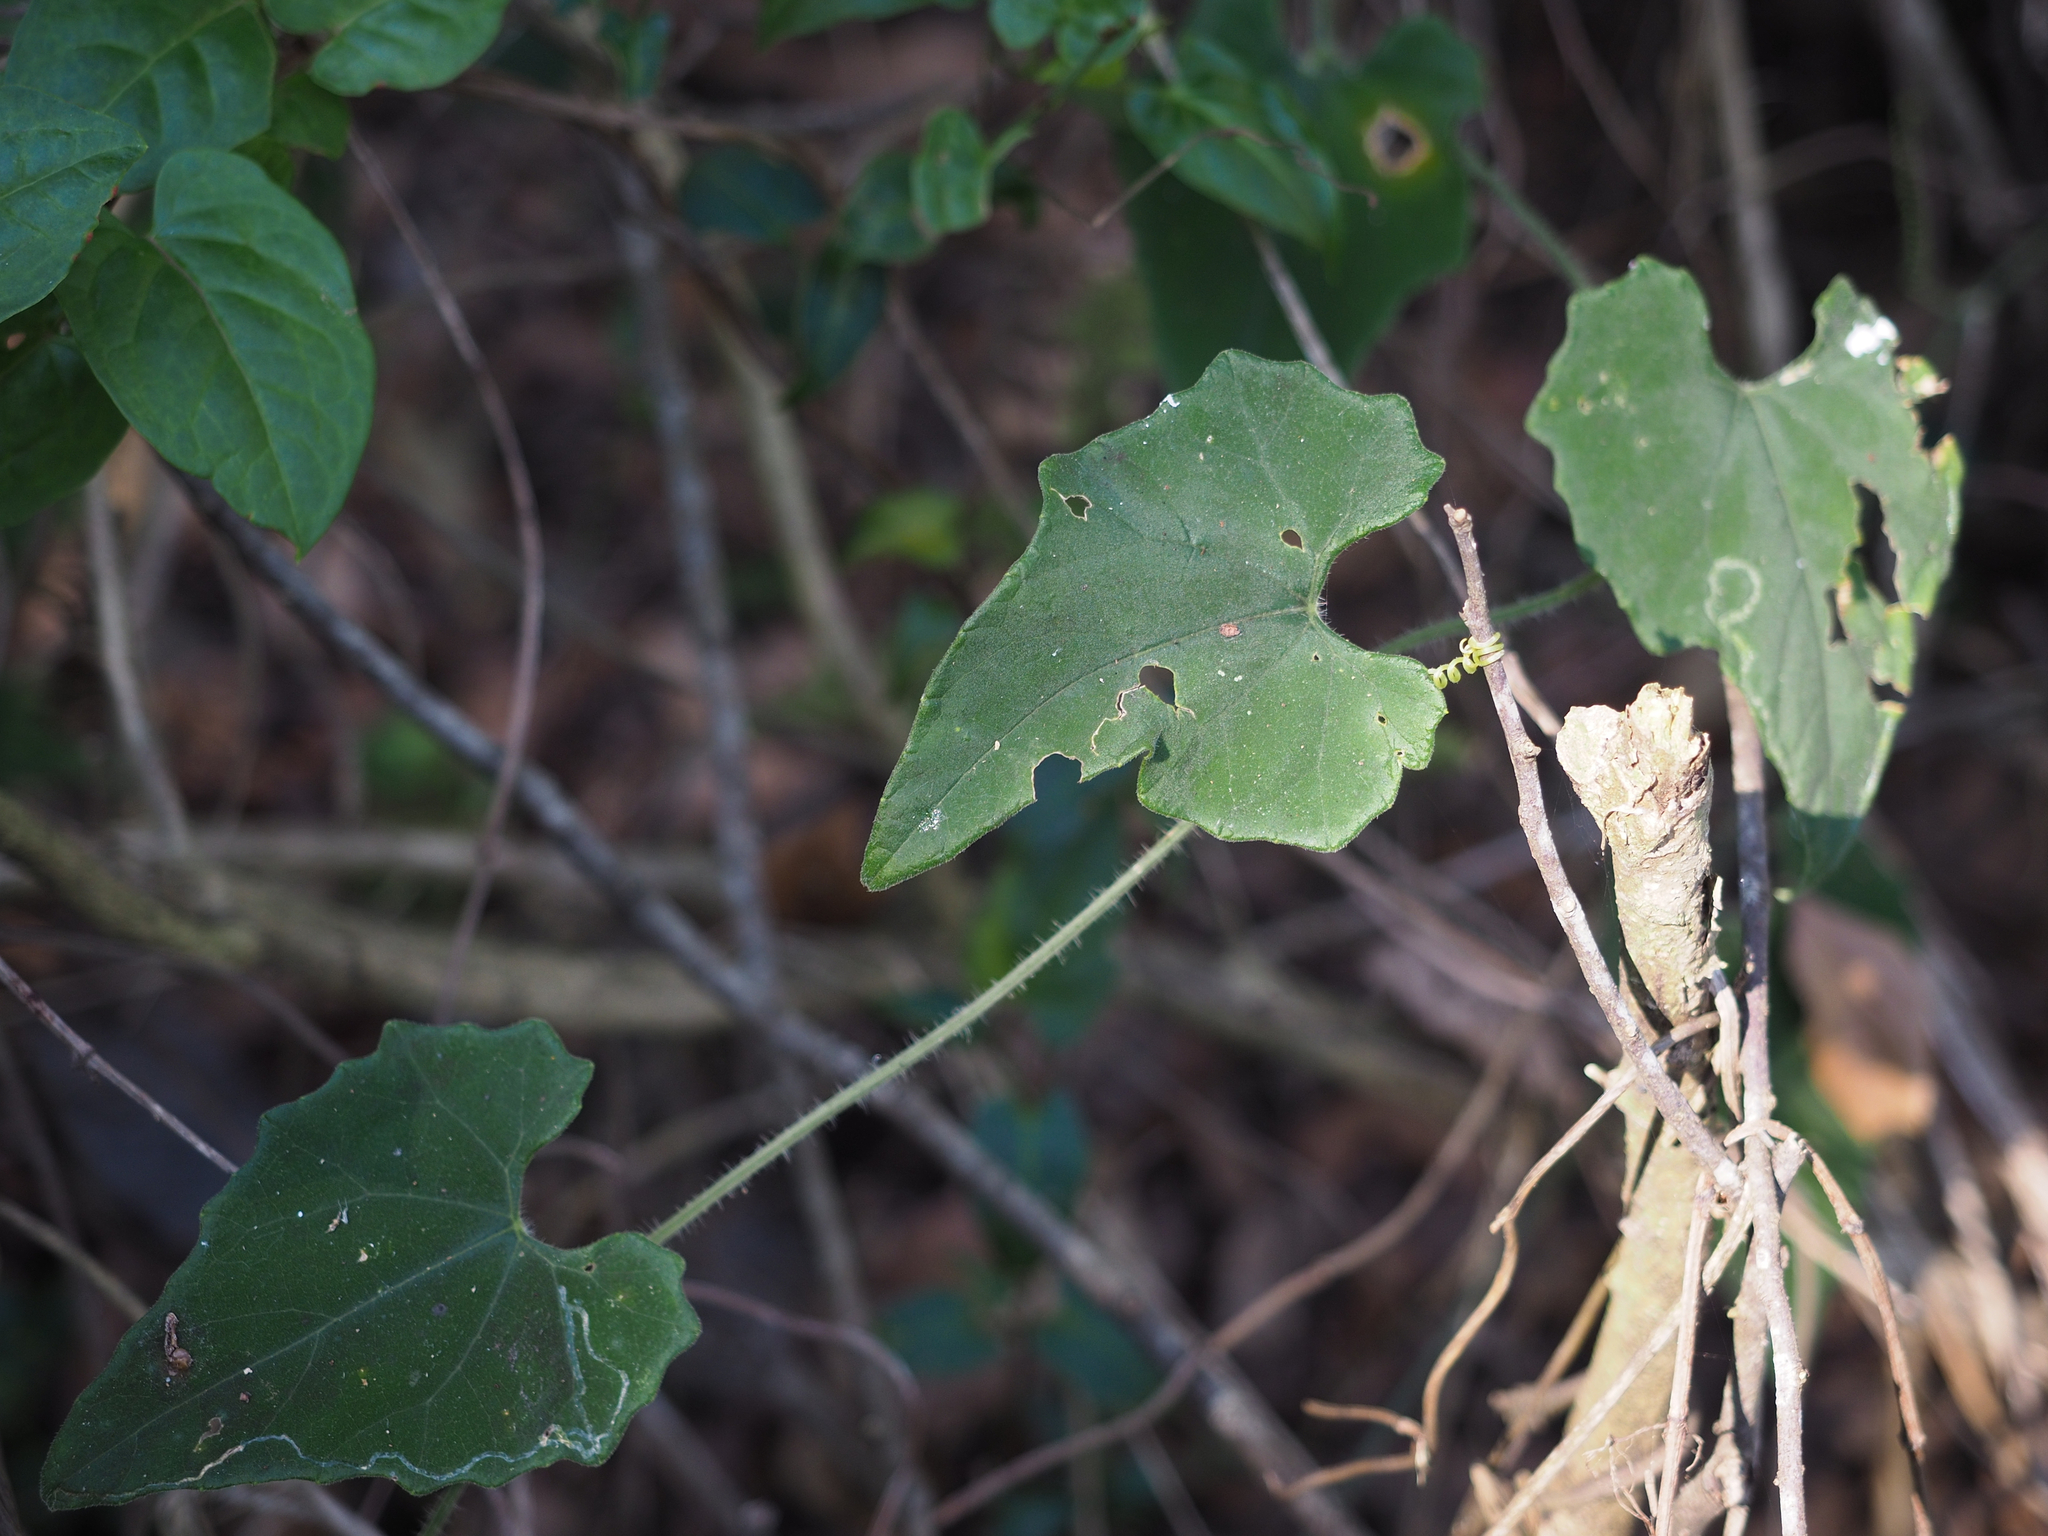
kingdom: Plantae
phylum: Tracheophyta
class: Magnoliopsida
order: Cucurbitales
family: Cucurbitaceae
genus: Trichosanthes
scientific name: Trichosanthes cucumeroides
